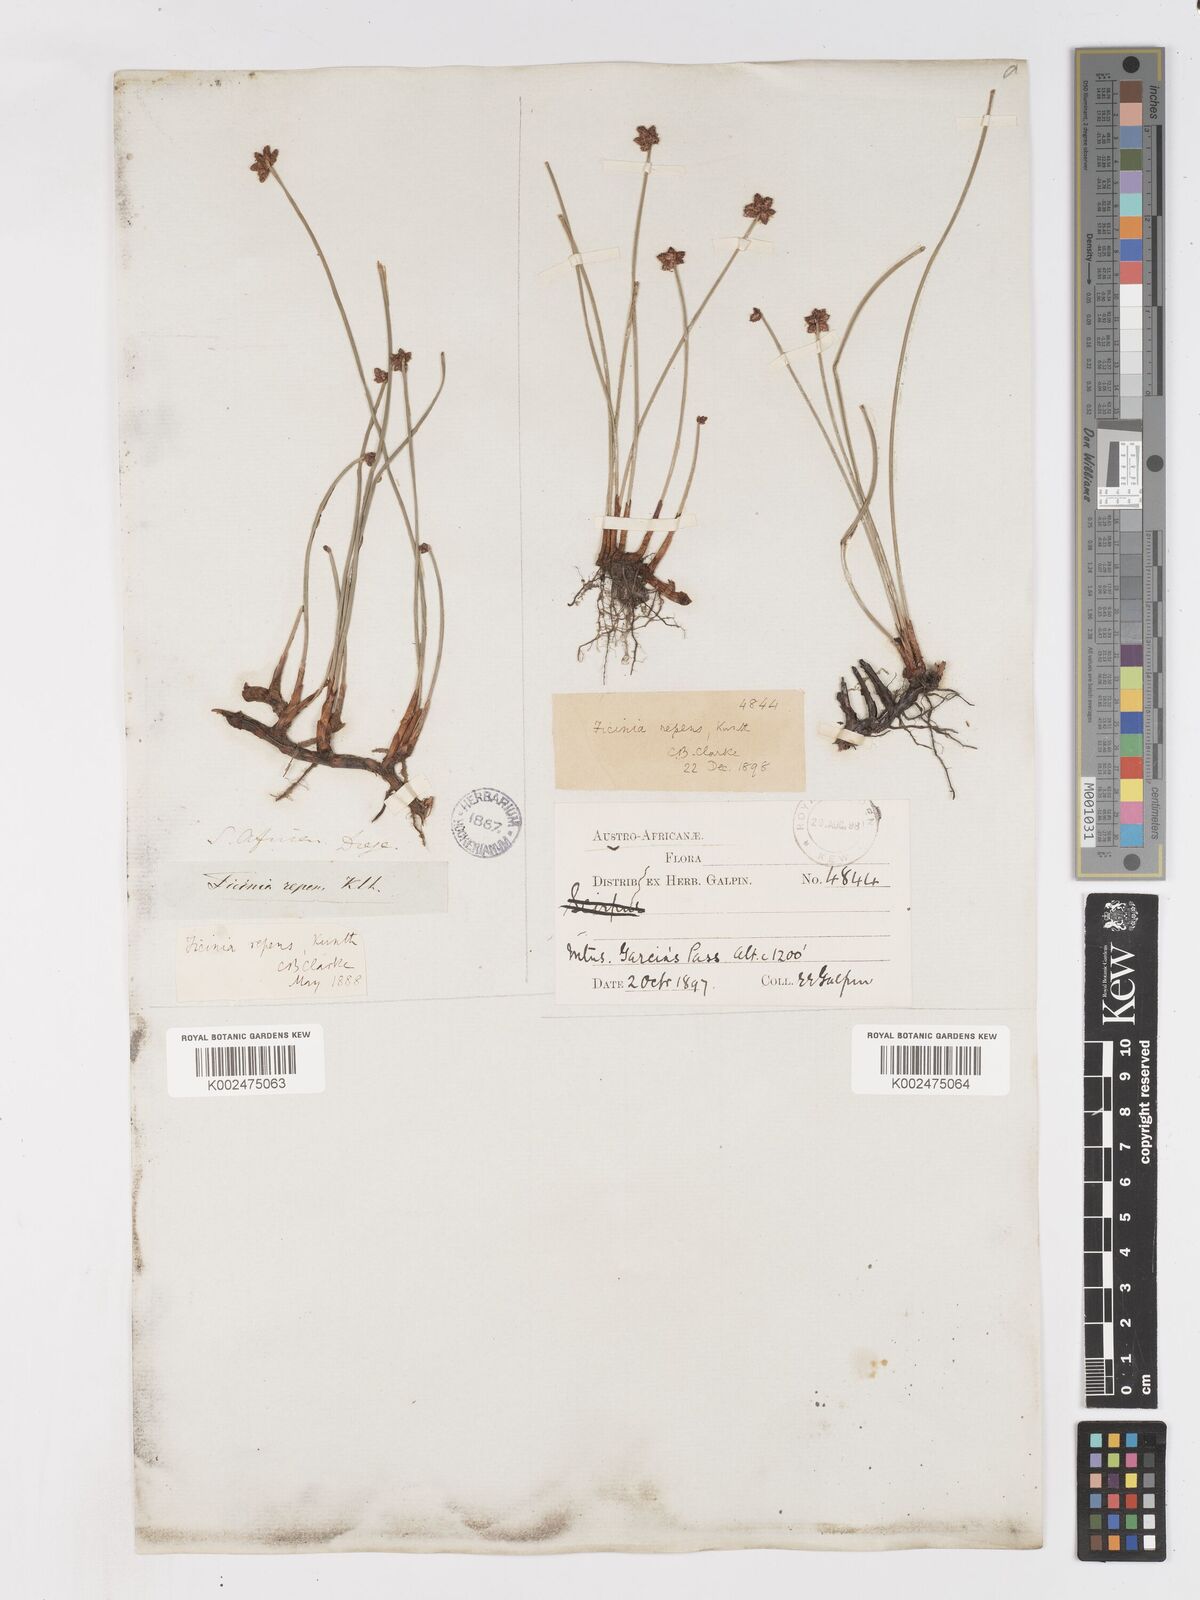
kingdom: Plantae
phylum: Tracheophyta
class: Liliopsida
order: Poales
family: Cyperaceae
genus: Ficinia
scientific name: Ficinia repens
